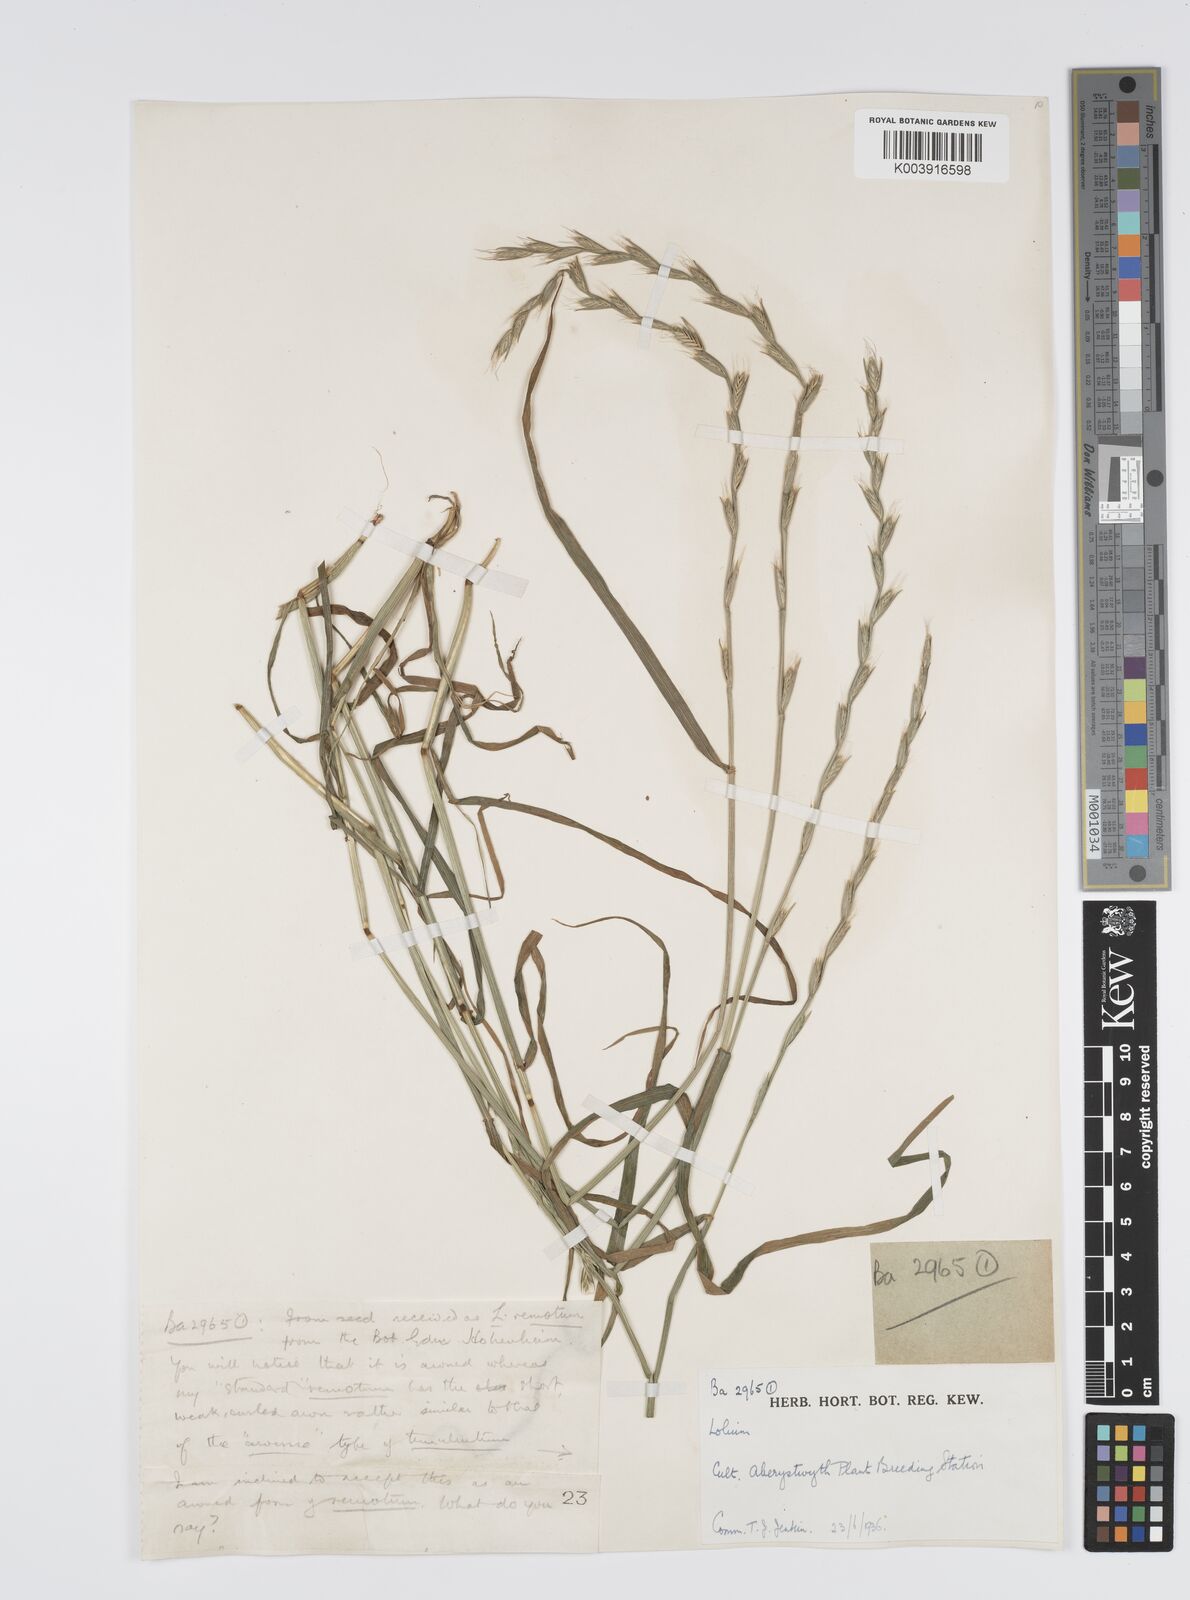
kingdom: Plantae
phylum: Tracheophyta
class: Liliopsida
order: Poales
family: Poaceae
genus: Lolium
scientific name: Lolium remotum
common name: Flaxfield rye-grass
